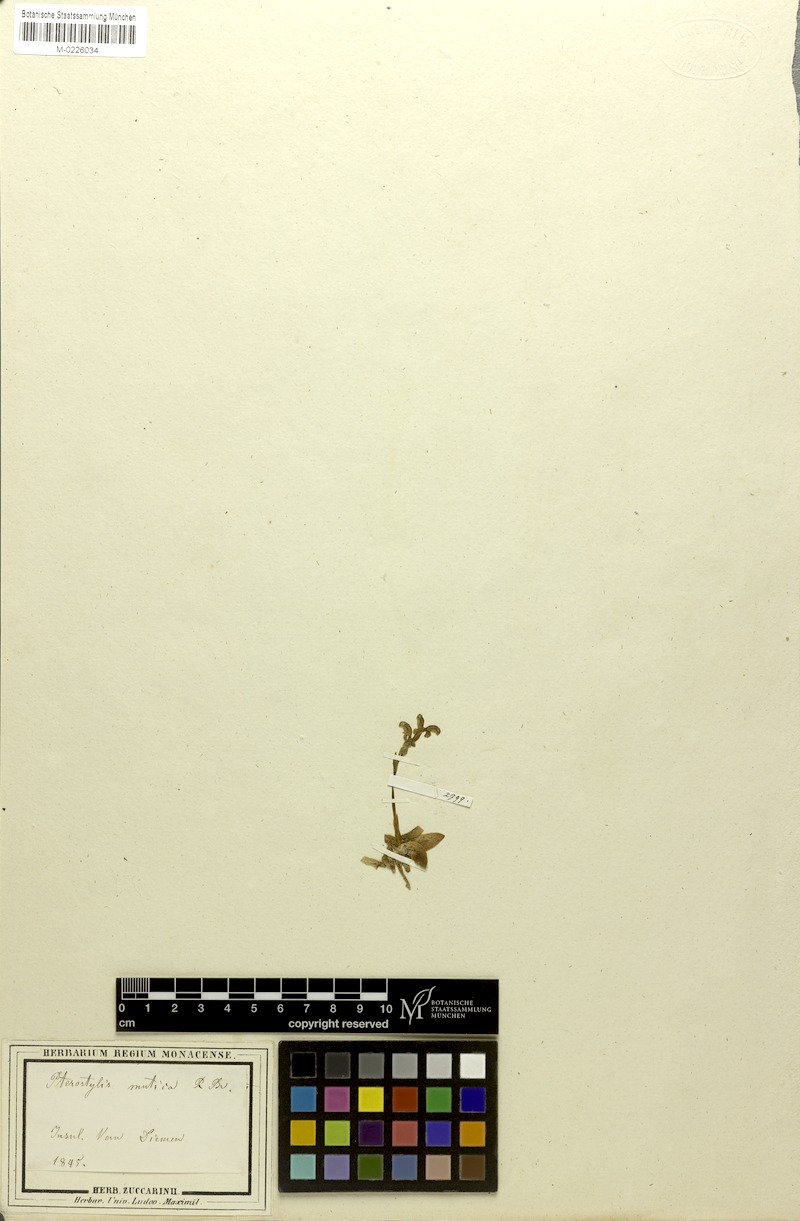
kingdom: Plantae
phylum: Tracheophyta
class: Liliopsida
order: Asparagales
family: Orchidaceae
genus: Pterostylis
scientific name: Pterostylis mutica
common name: Midget greenhood
